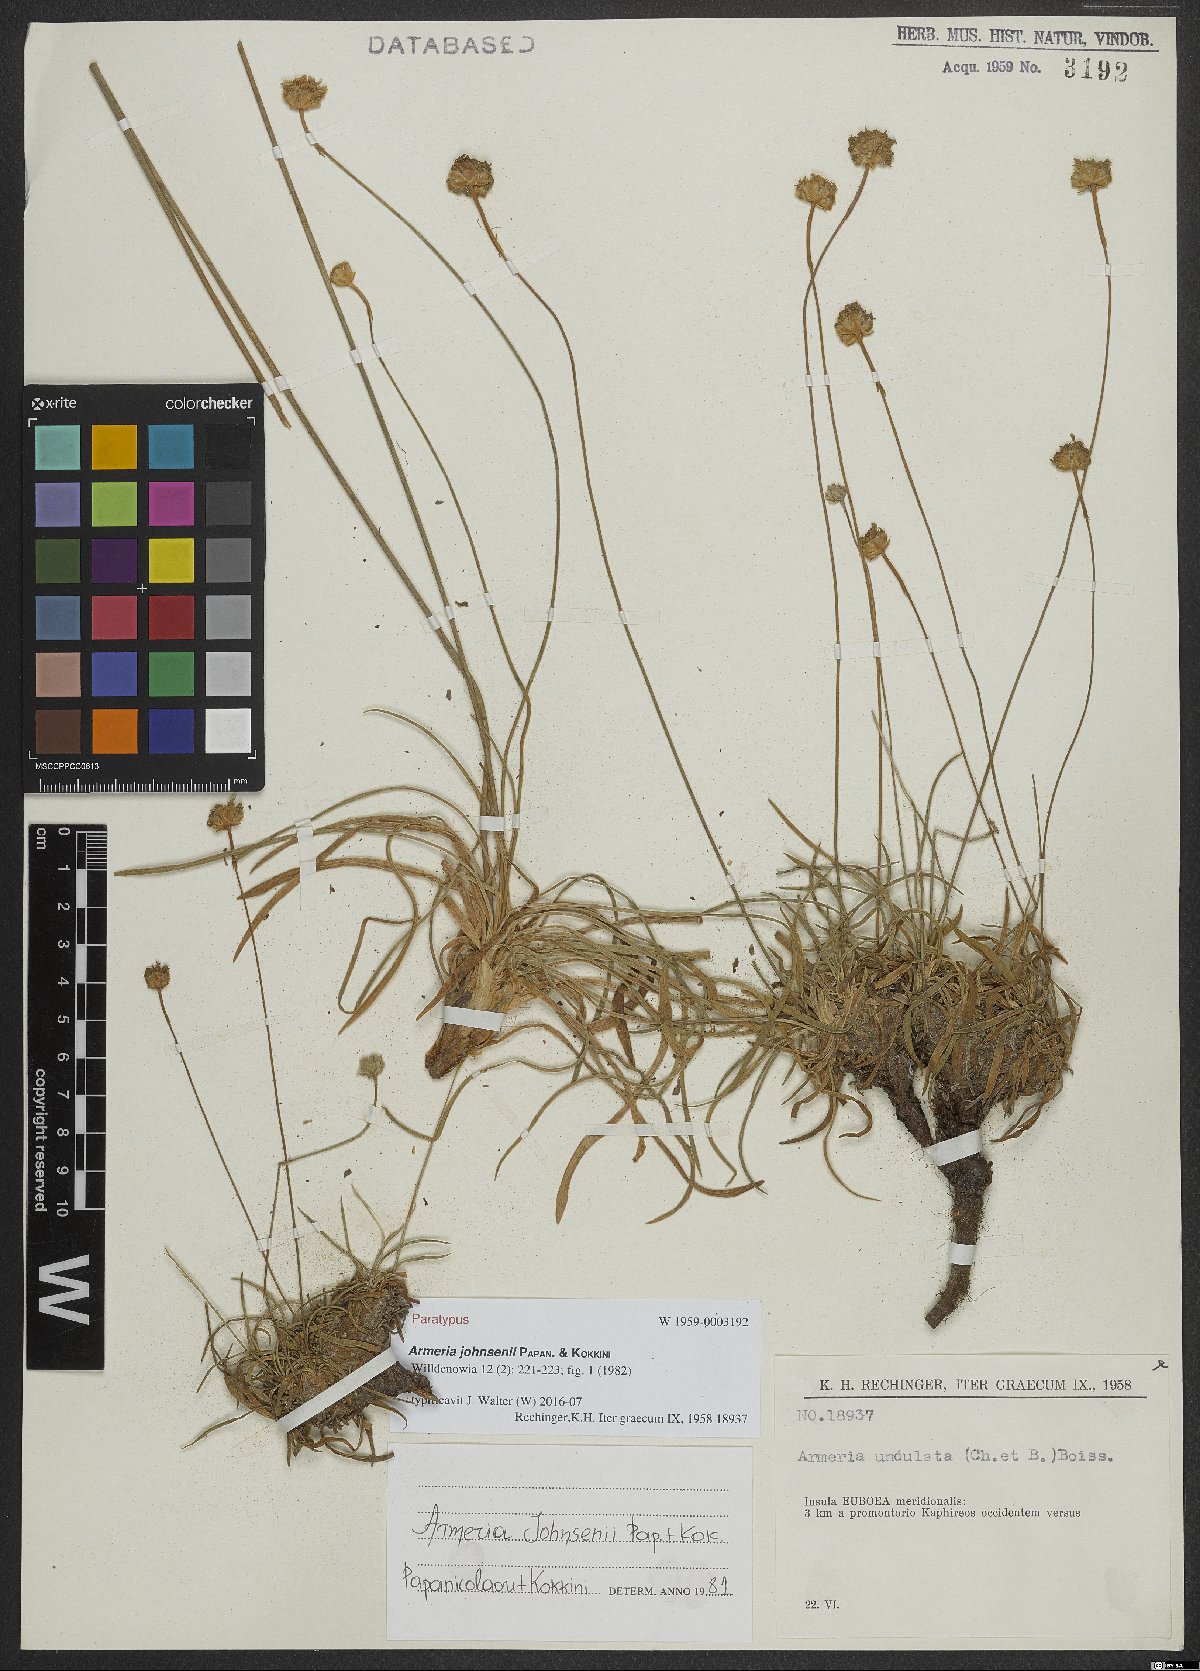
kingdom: Plantae
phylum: Tracheophyta
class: Magnoliopsida
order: Caryophyllales
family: Plumbaginaceae
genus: Armeria
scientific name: Armeria johnsenii
